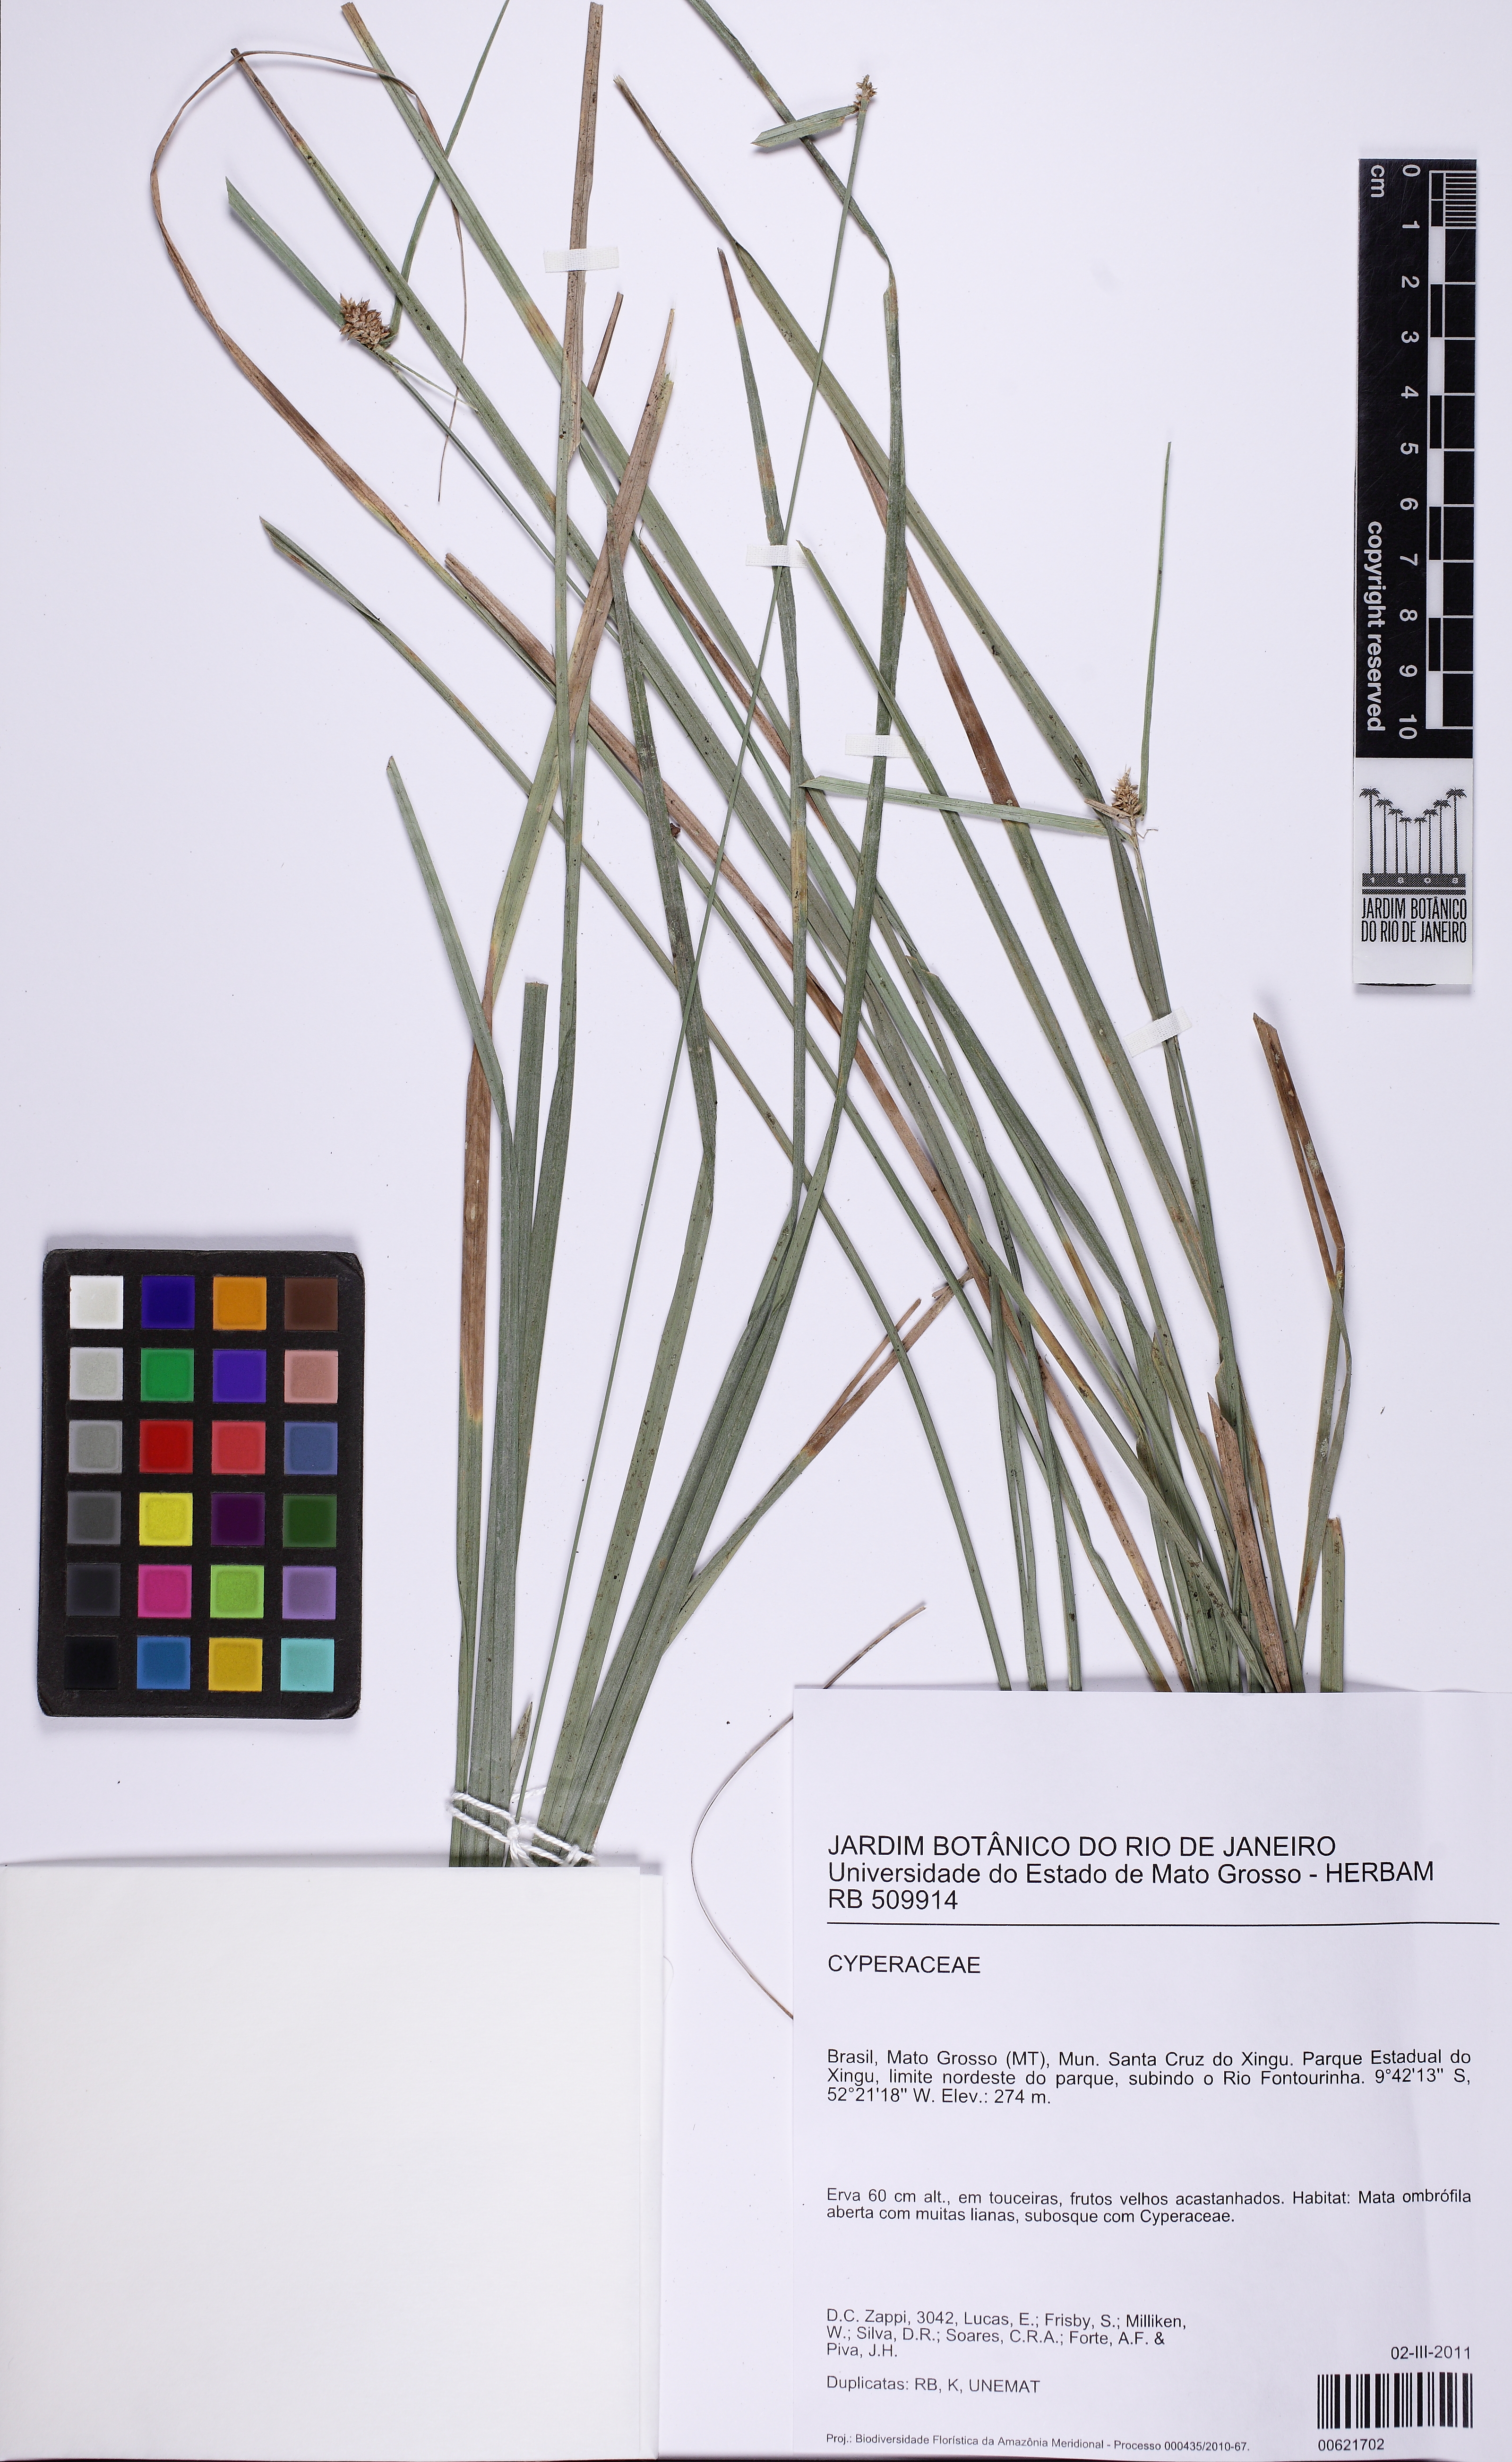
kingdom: Plantae
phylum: Tracheophyta
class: Liliopsida
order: Poales
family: Cyperaceae
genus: Rhynchospora
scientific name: Rhynchospora
